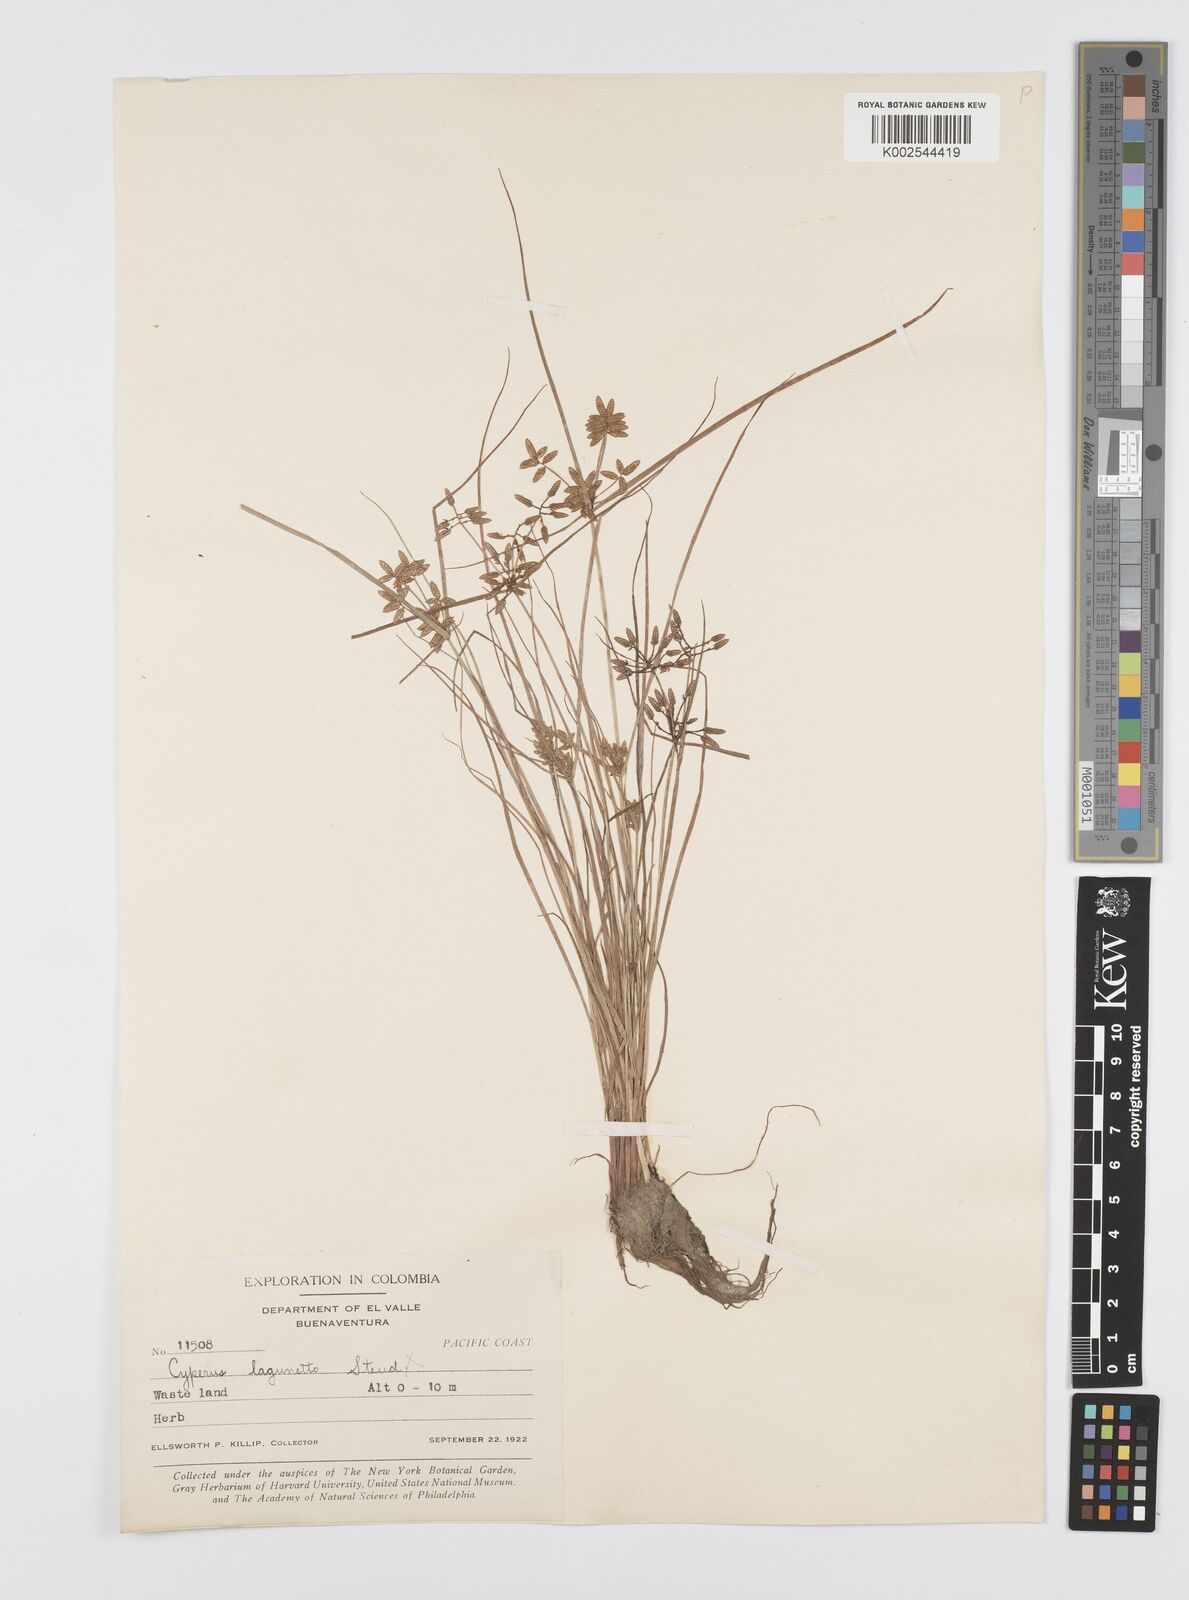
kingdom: Plantae
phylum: Tracheophyta
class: Liliopsida
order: Poales
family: Cyperaceae
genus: Cyperus
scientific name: Cyperus flavescens
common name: Yellow galingale
